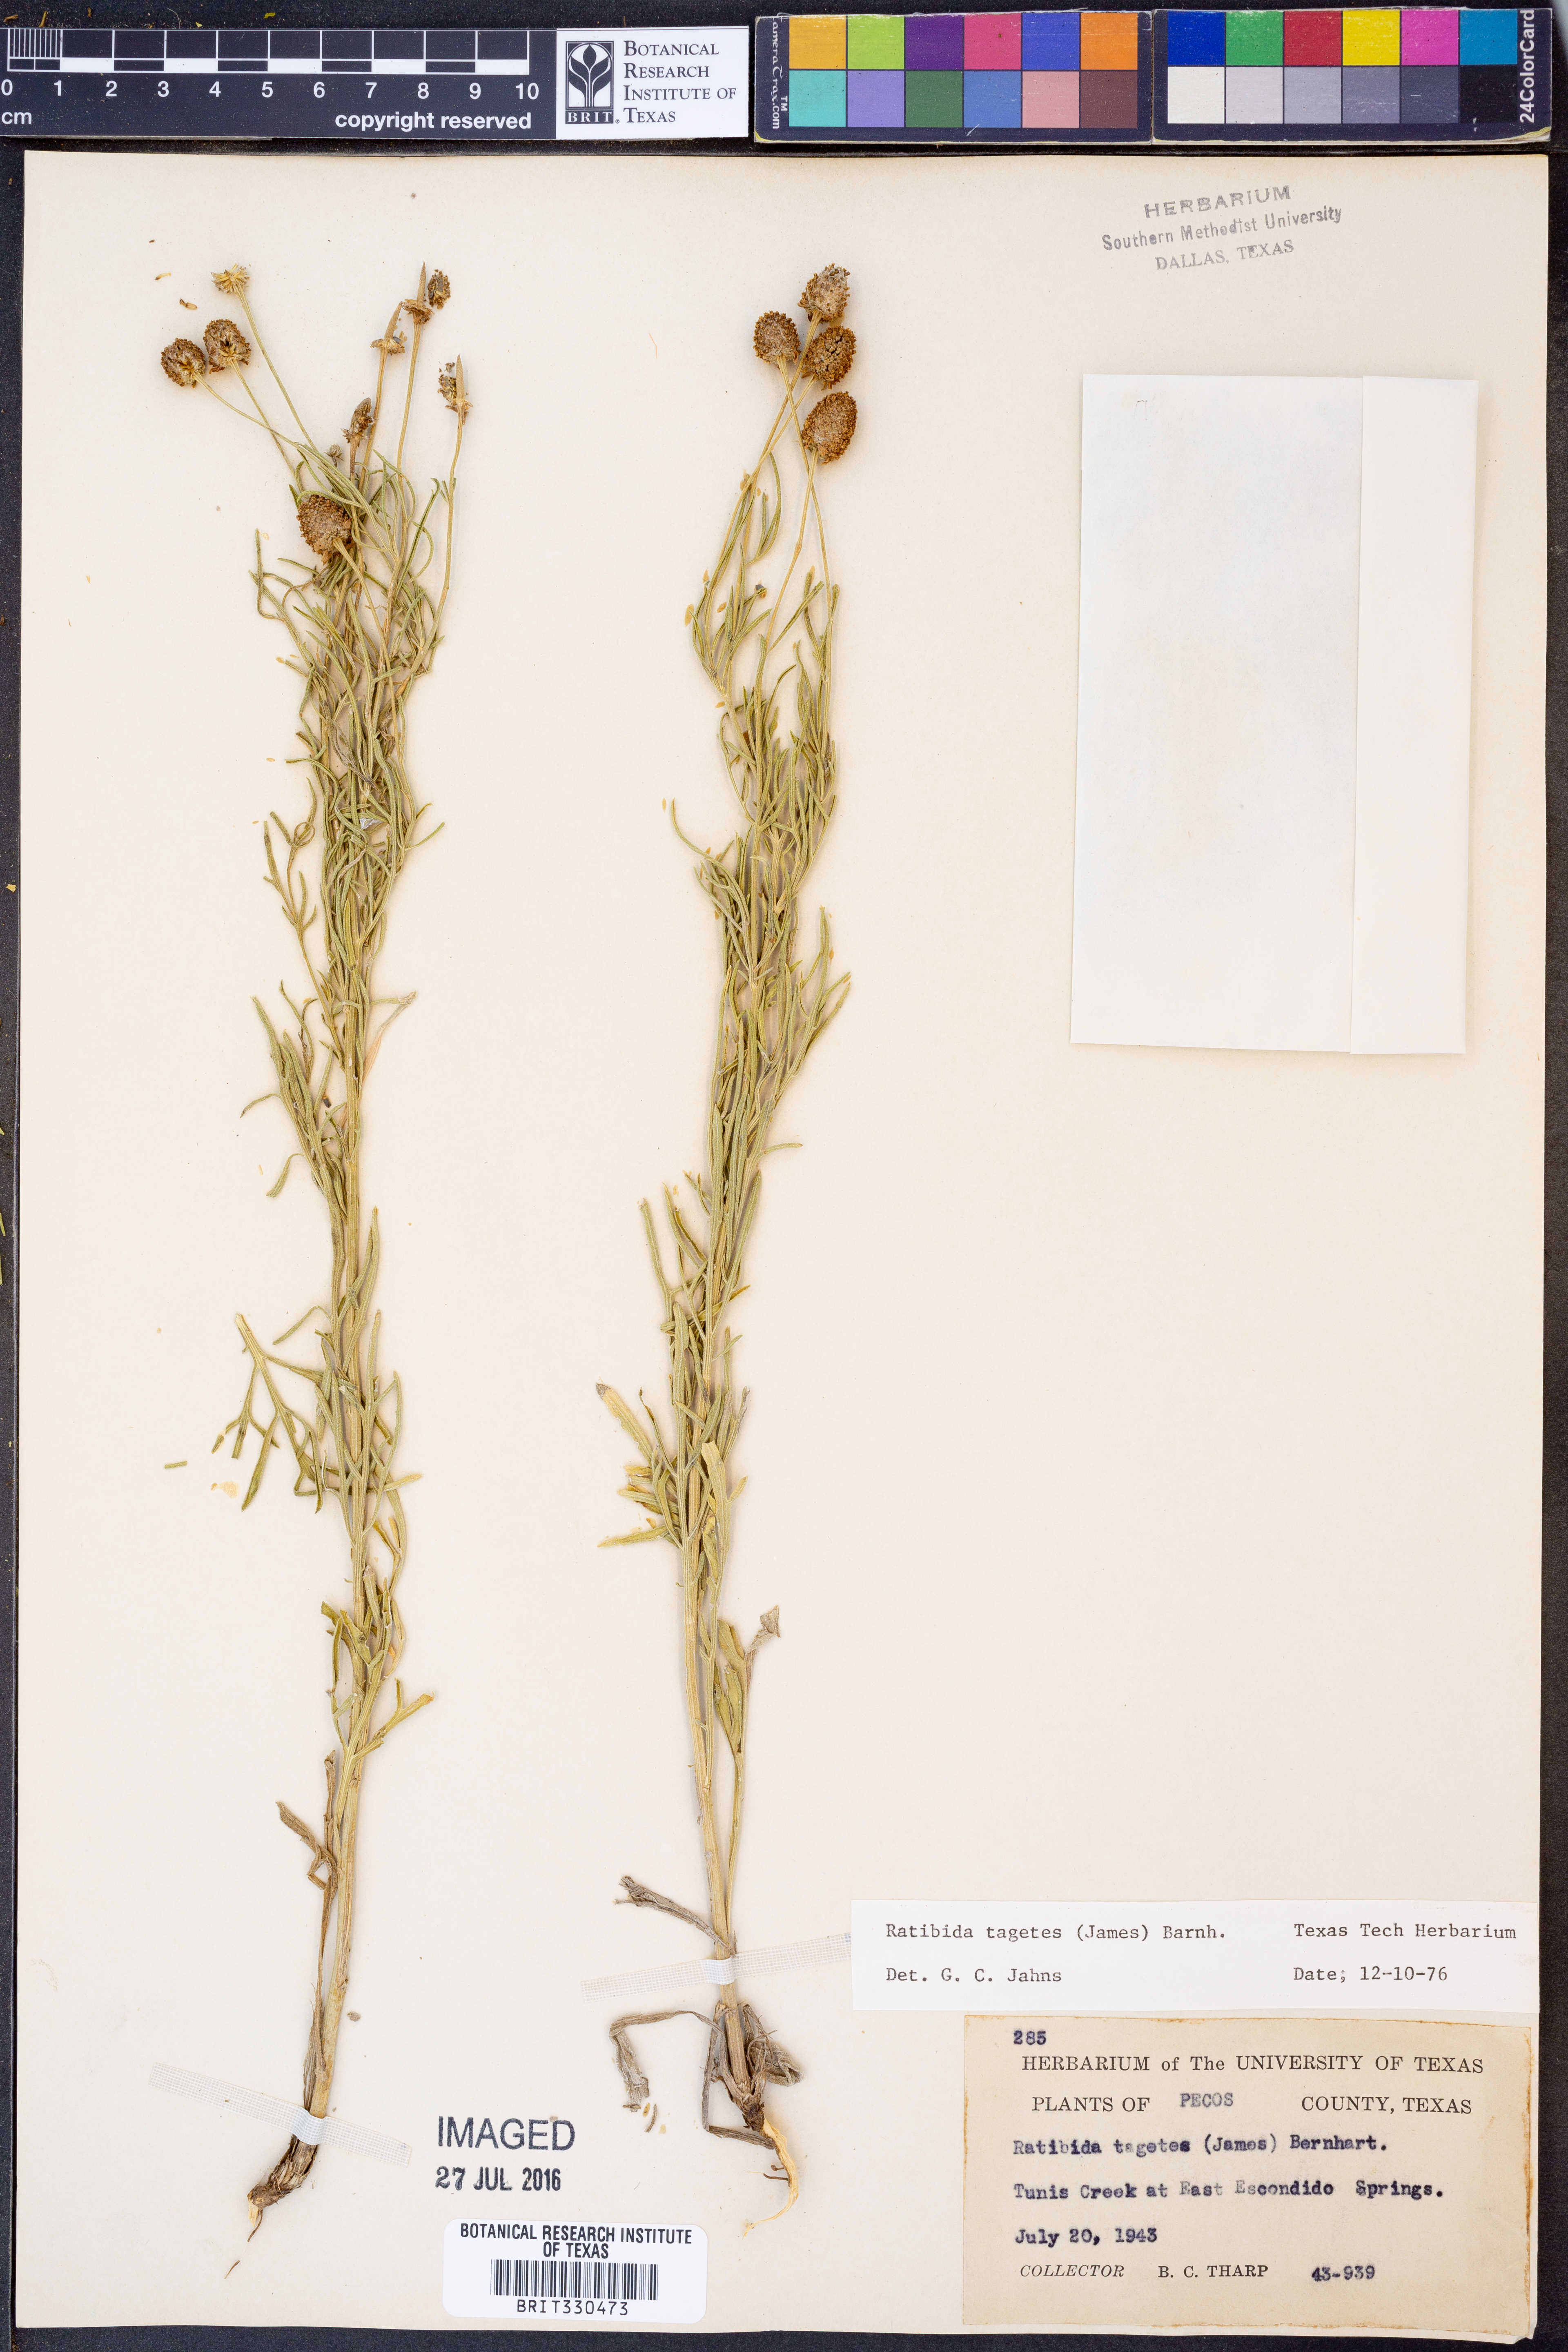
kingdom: Plantae
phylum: Tracheophyta
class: Magnoliopsida
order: Asterales
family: Asteraceae
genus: Ratibida
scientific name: Ratibida tagetes
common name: Green mexican-hat
